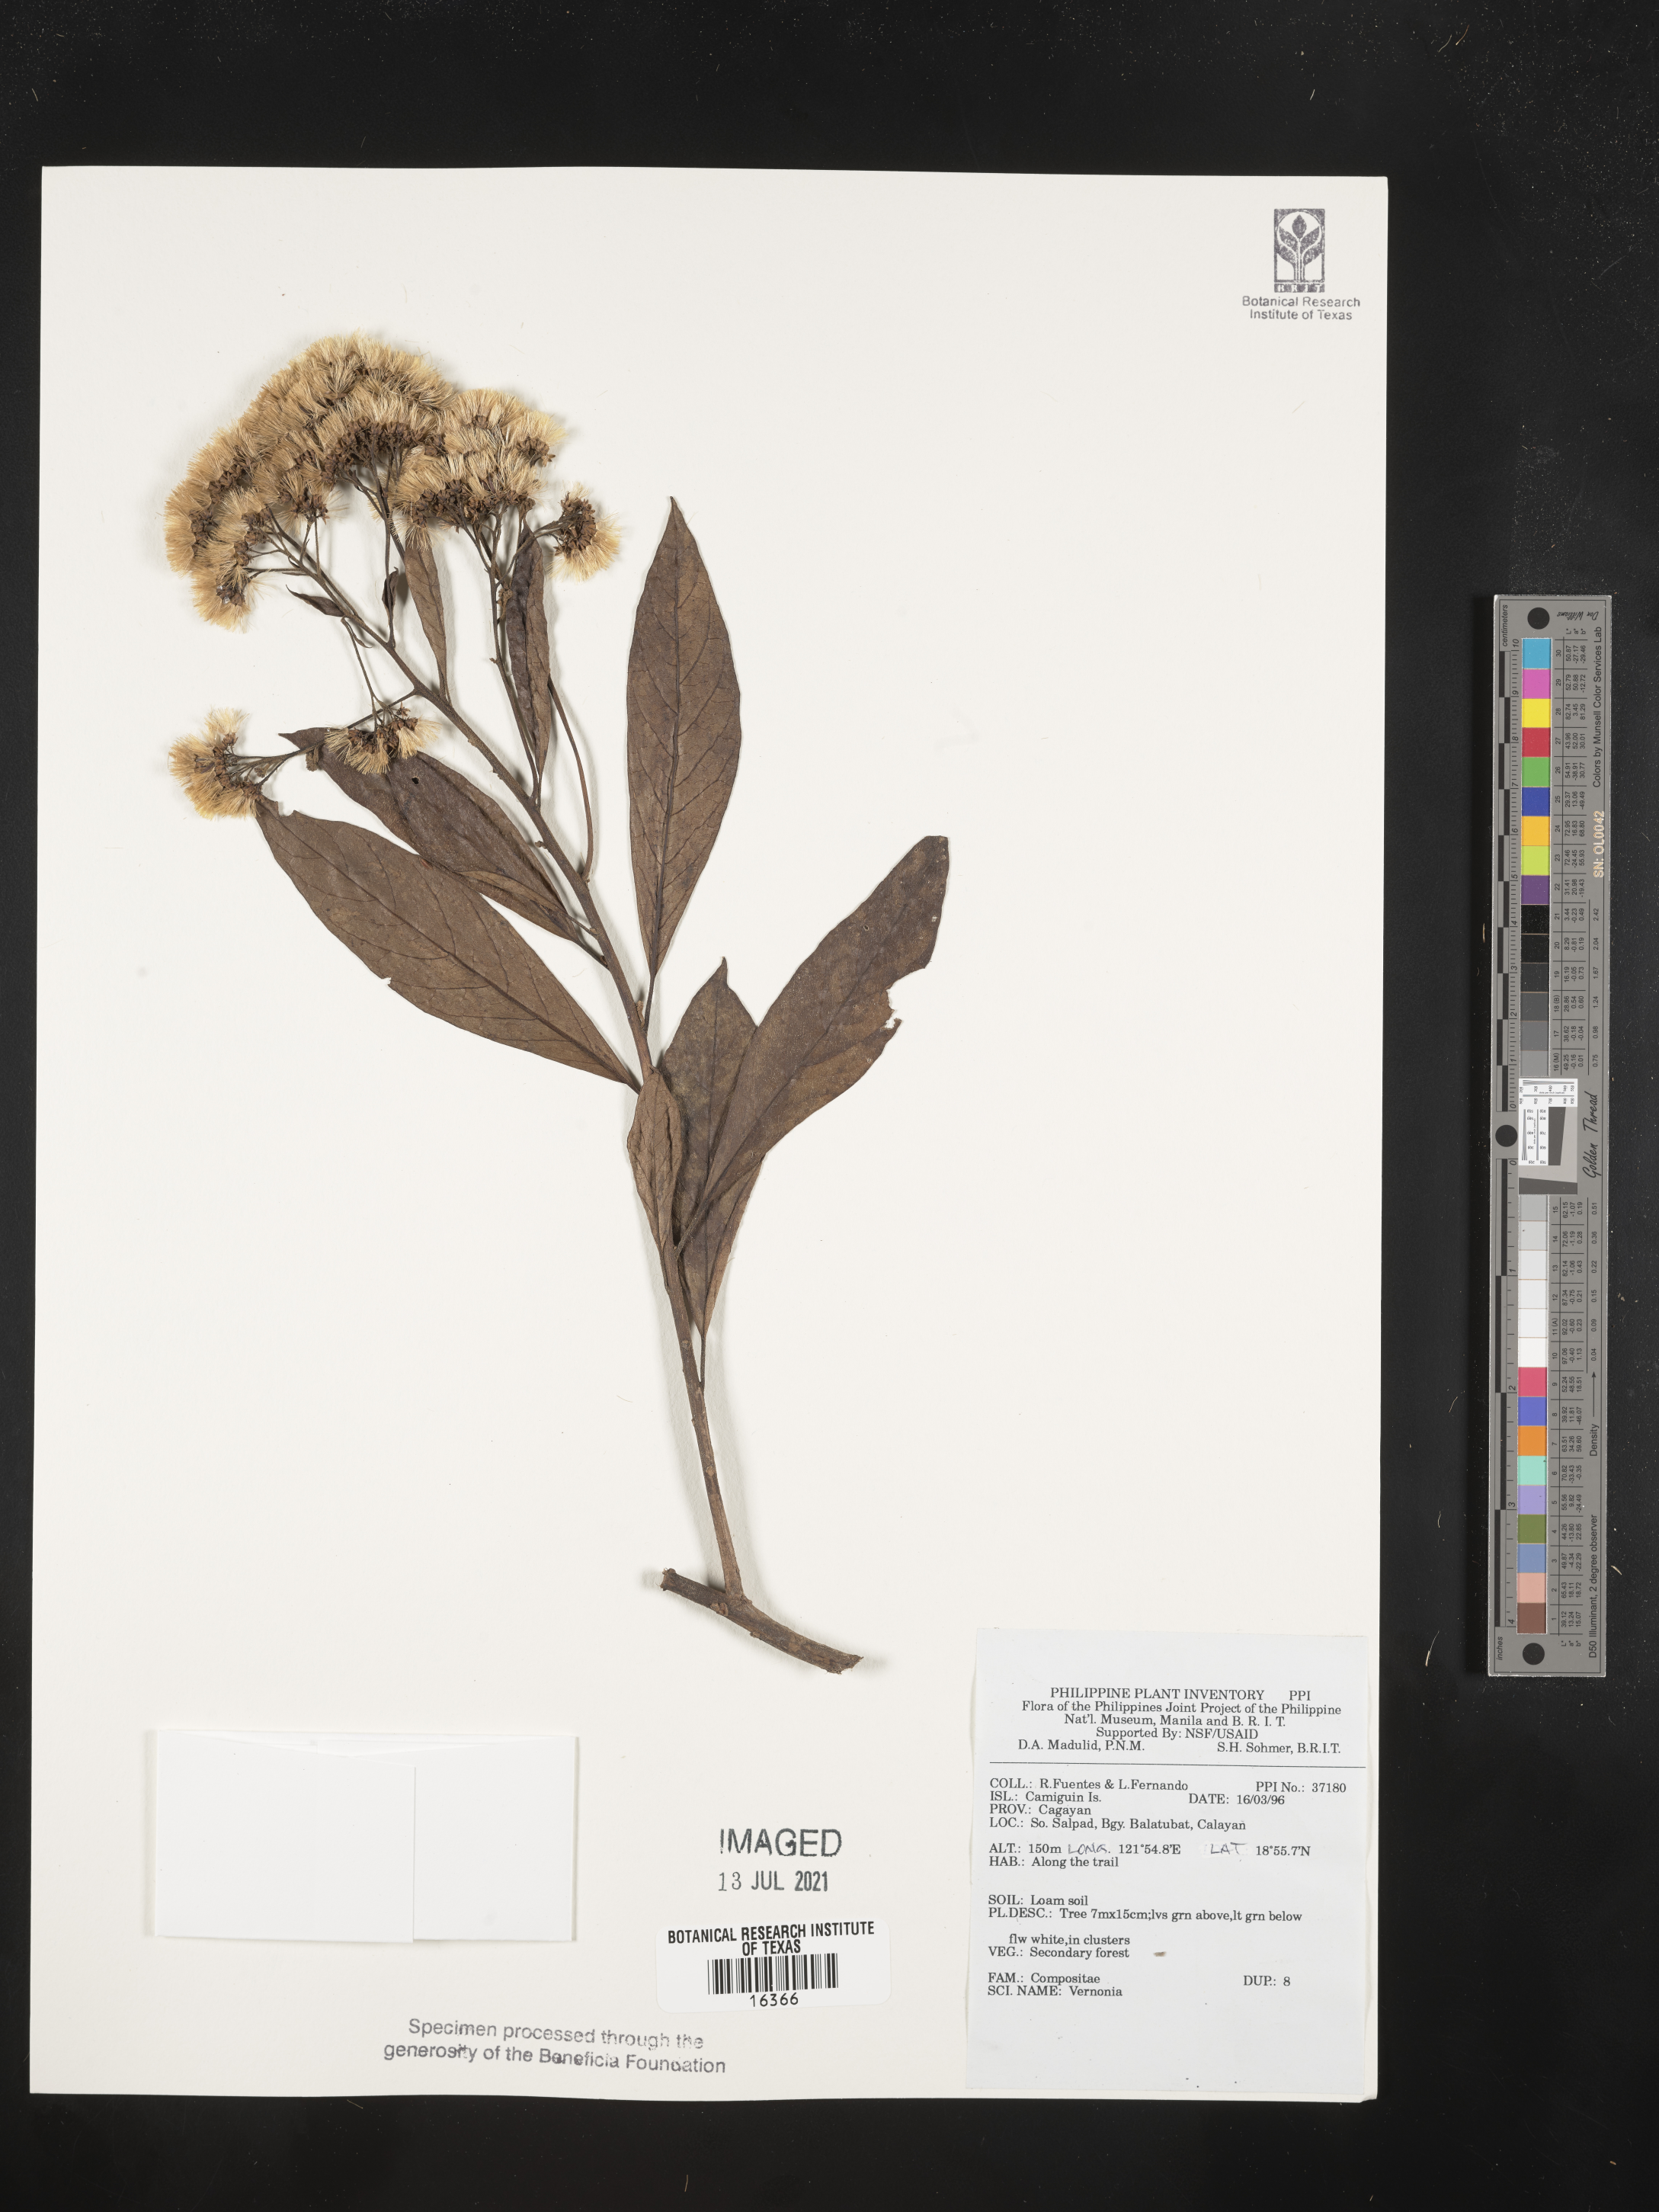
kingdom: Plantae
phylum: Tracheophyta
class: Magnoliopsida
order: Asterales
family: Asteraceae
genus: Vernonia
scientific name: Vernonia
